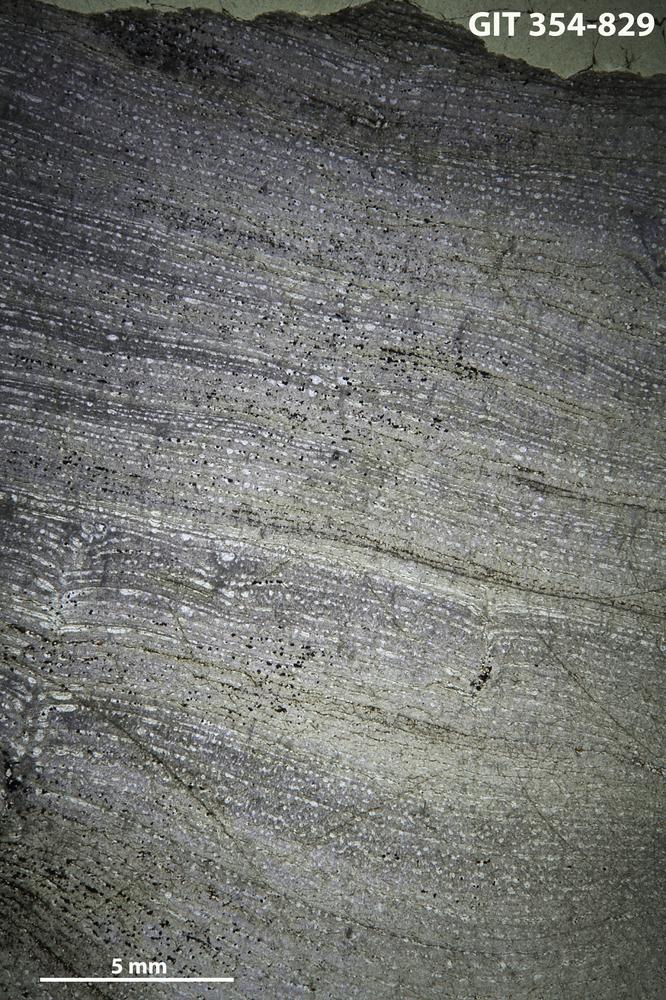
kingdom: Animalia
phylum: Porifera
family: Stromatoporidae
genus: Parallelostroma
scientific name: Parallelostroma
